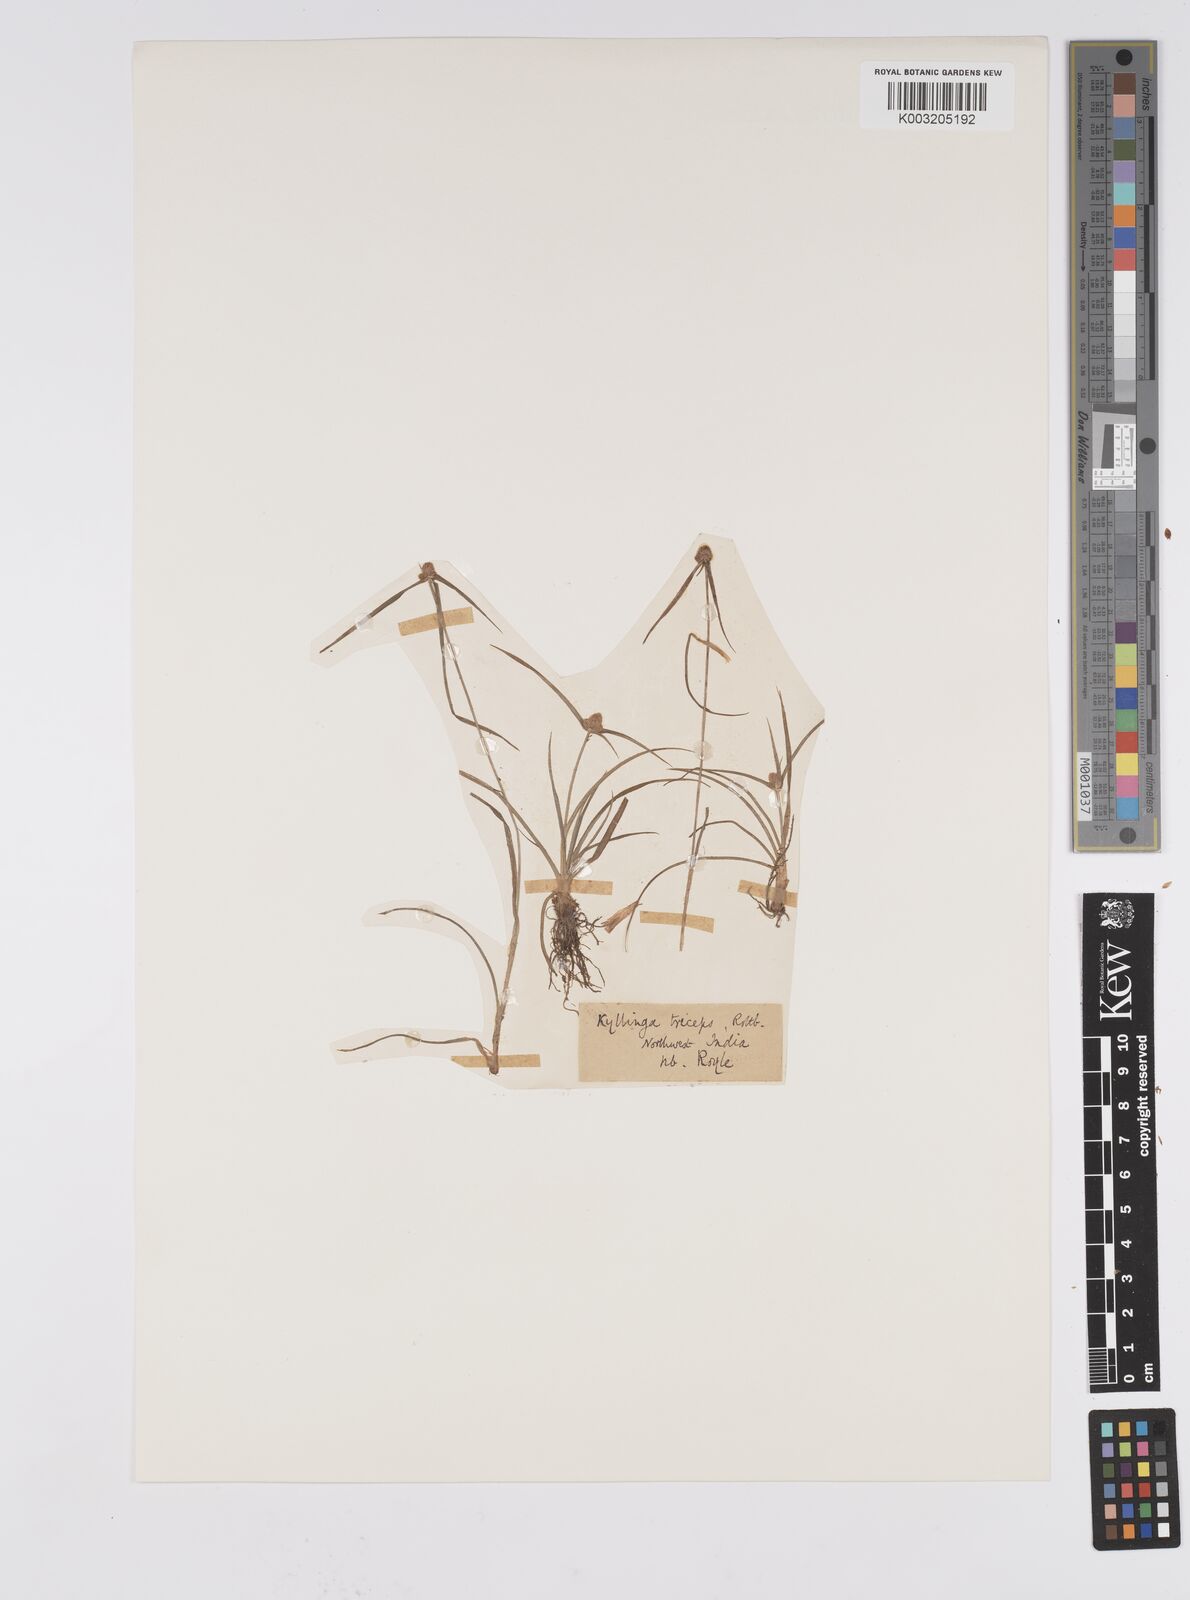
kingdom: Plantae
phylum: Tracheophyta
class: Liliopsida
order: Poales
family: Cyperaceae
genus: Cyperus
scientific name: Cyperus
